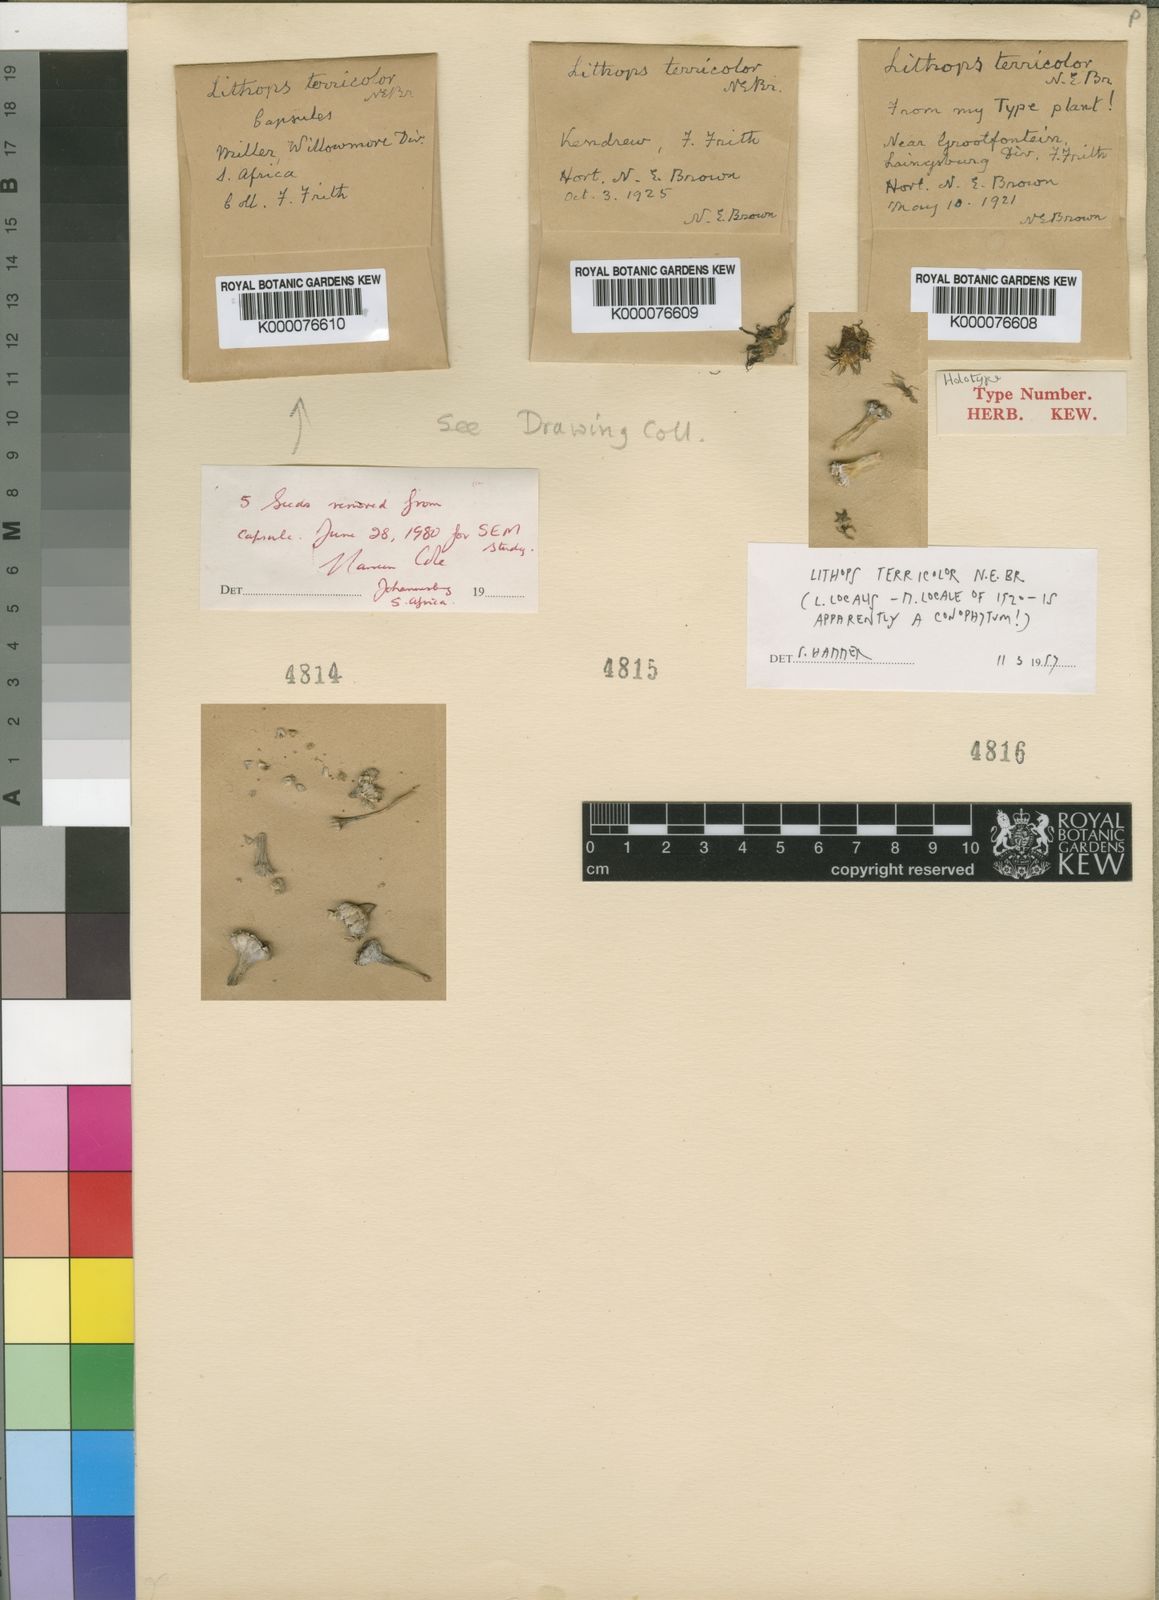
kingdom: Plantae
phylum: Tracheophyta
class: Magnoliopsida
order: Caryophyllales
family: Aizoaceae
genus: Lithops
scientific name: Lithops localis
